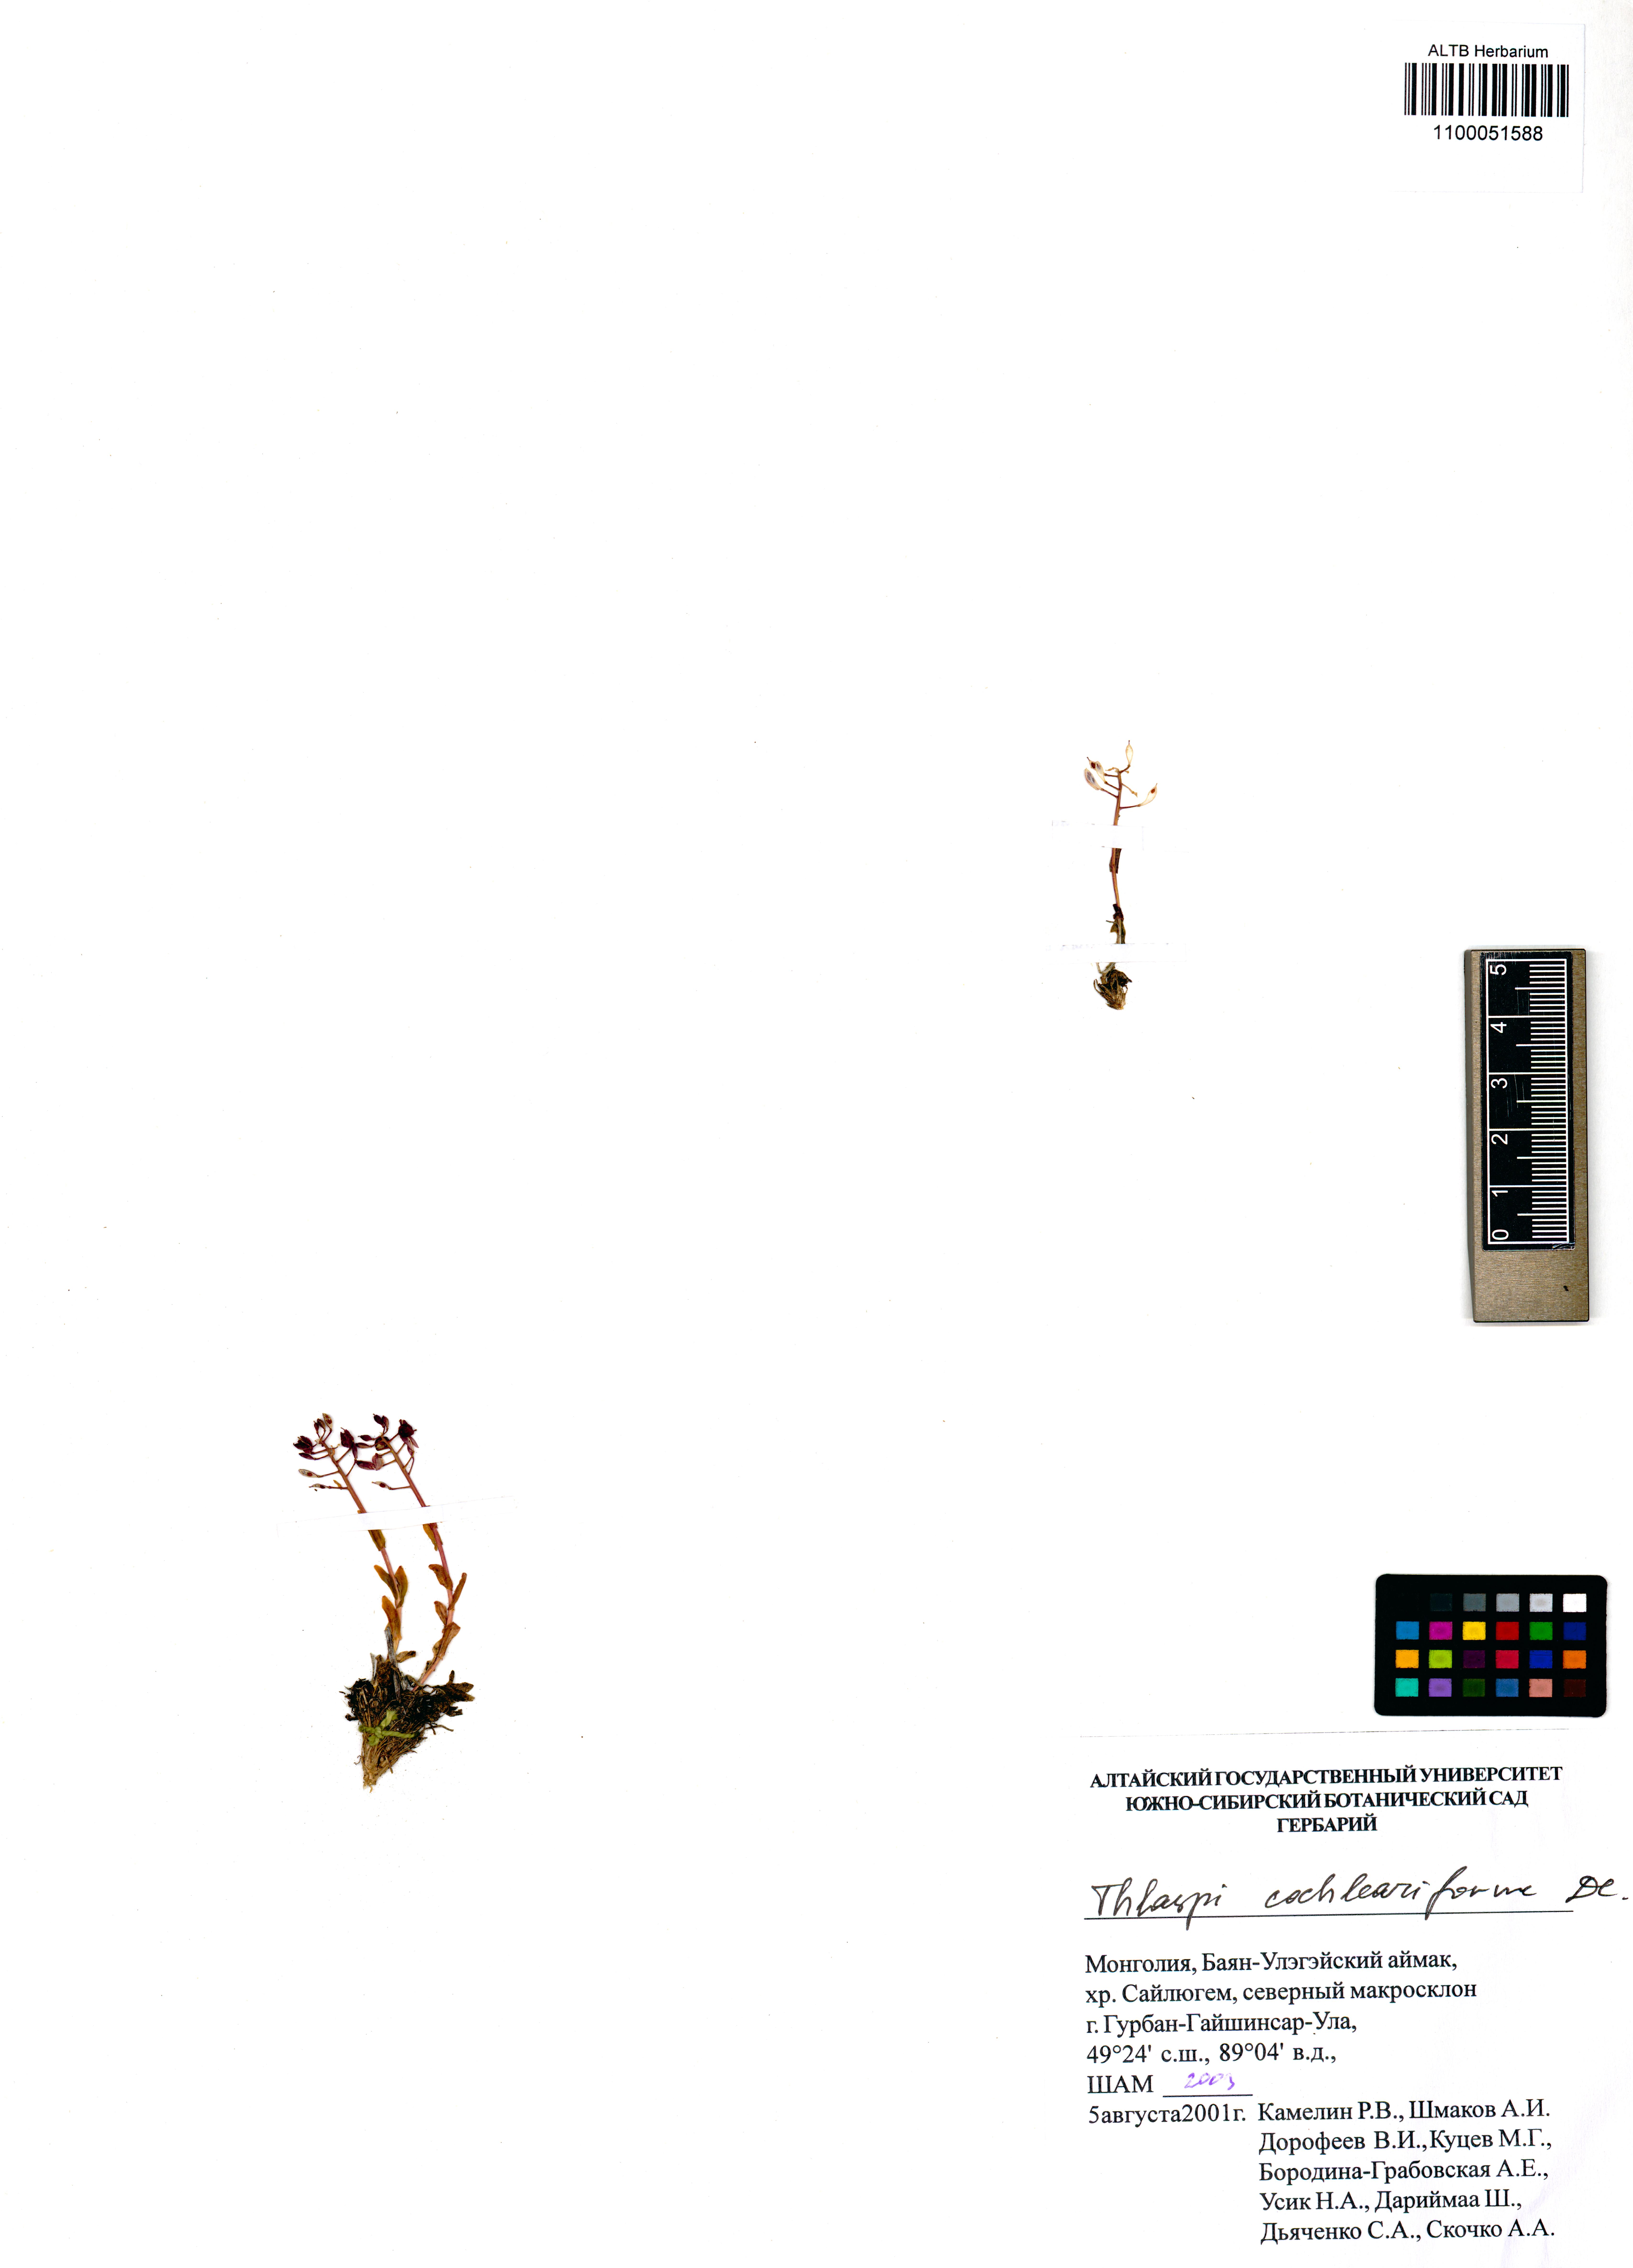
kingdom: Plantae
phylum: Tracheophyta
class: Magnoliopsida
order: Brassicales
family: Brassicaceae
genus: Noccaea
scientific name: Noccaea thlaspidioides
